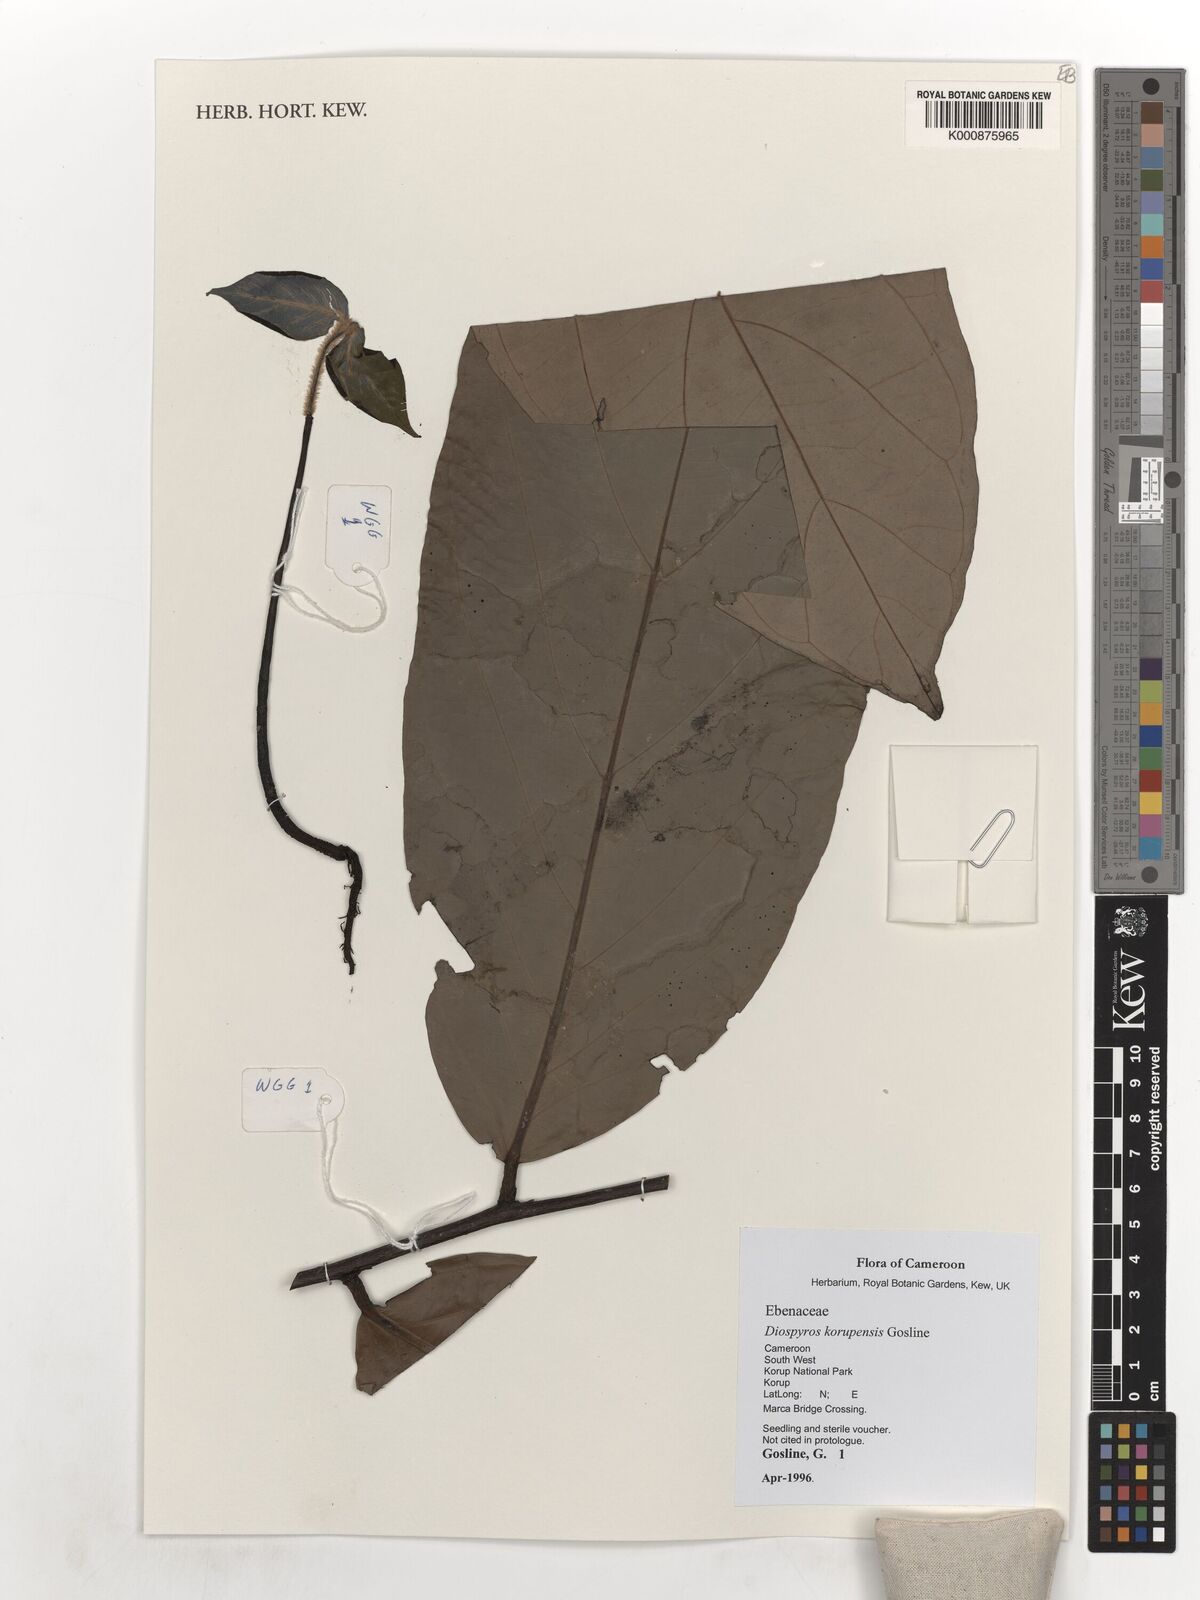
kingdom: Plantae
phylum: Tracheophyta
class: Magnoliopsida
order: Ericales
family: Ebenaceae
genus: Diospyros
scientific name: Diospyros korupensis
